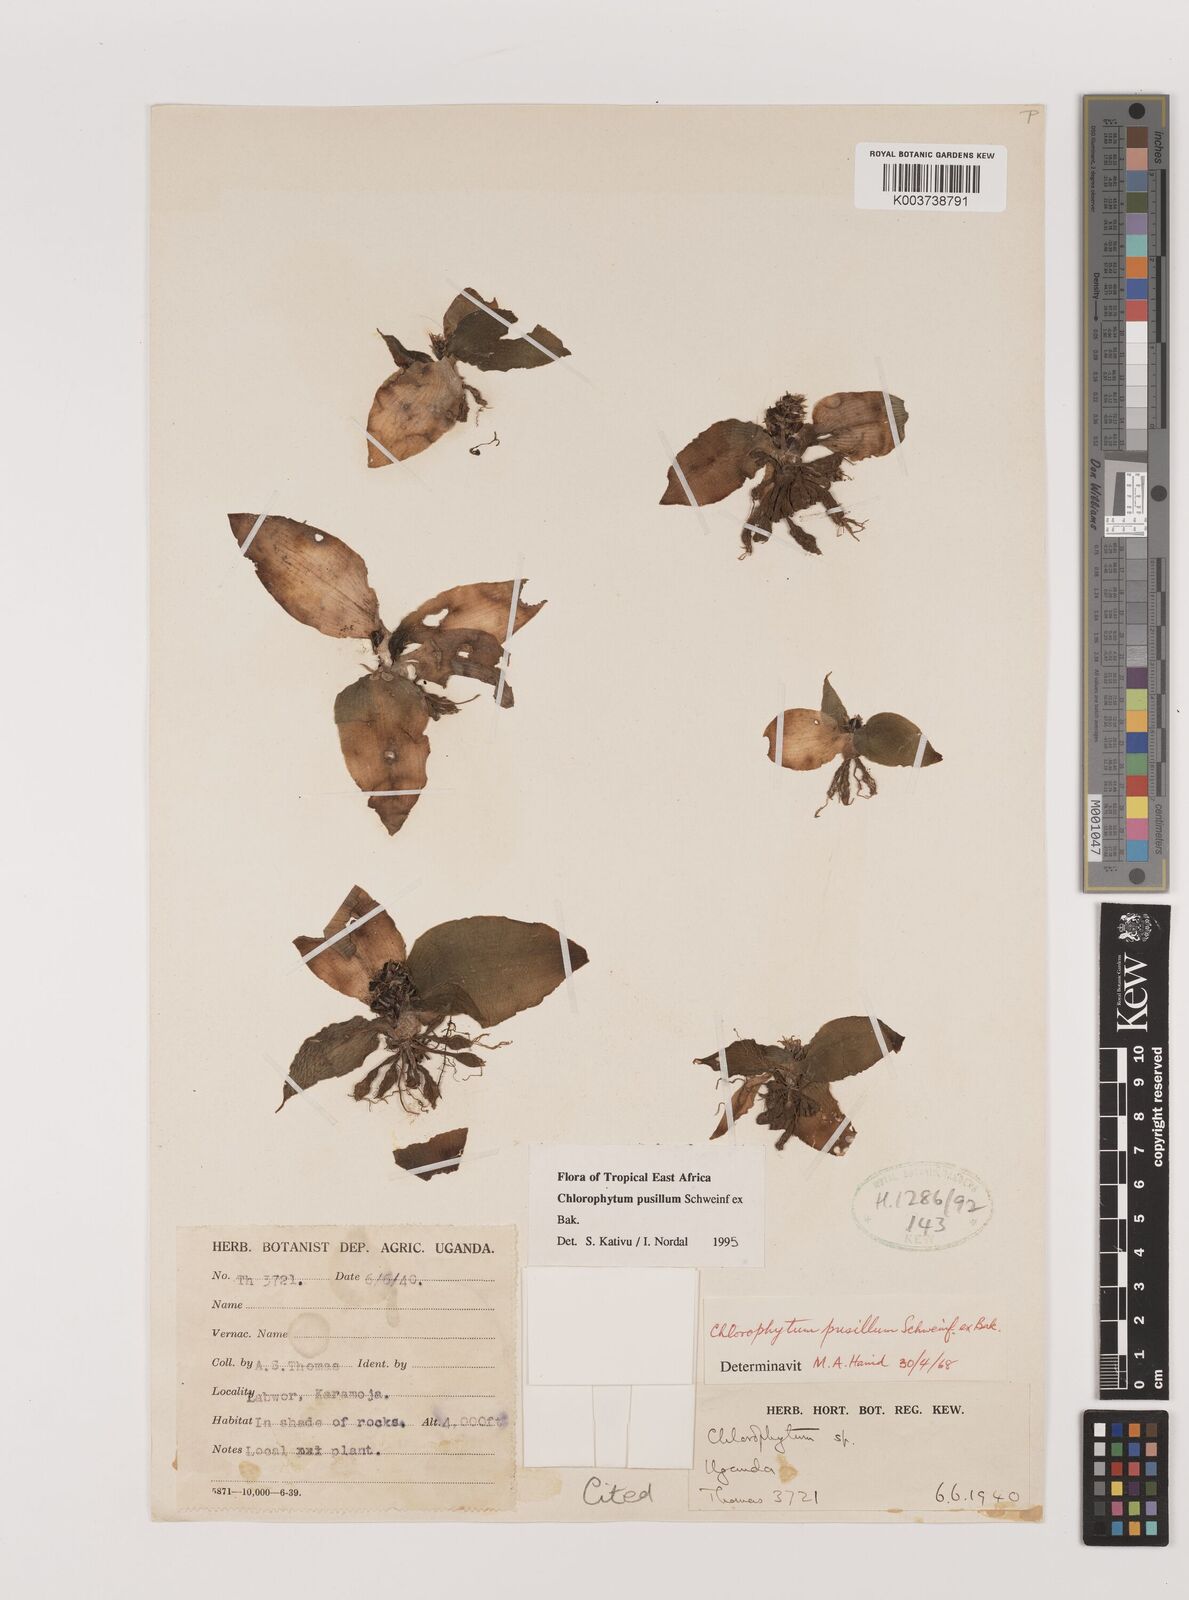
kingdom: Plantae
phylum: Tracheophyta
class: Liliopsida
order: Asparagales
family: Asparagaceae
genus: Chlorophytum
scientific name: Chlorophytum pusillum
